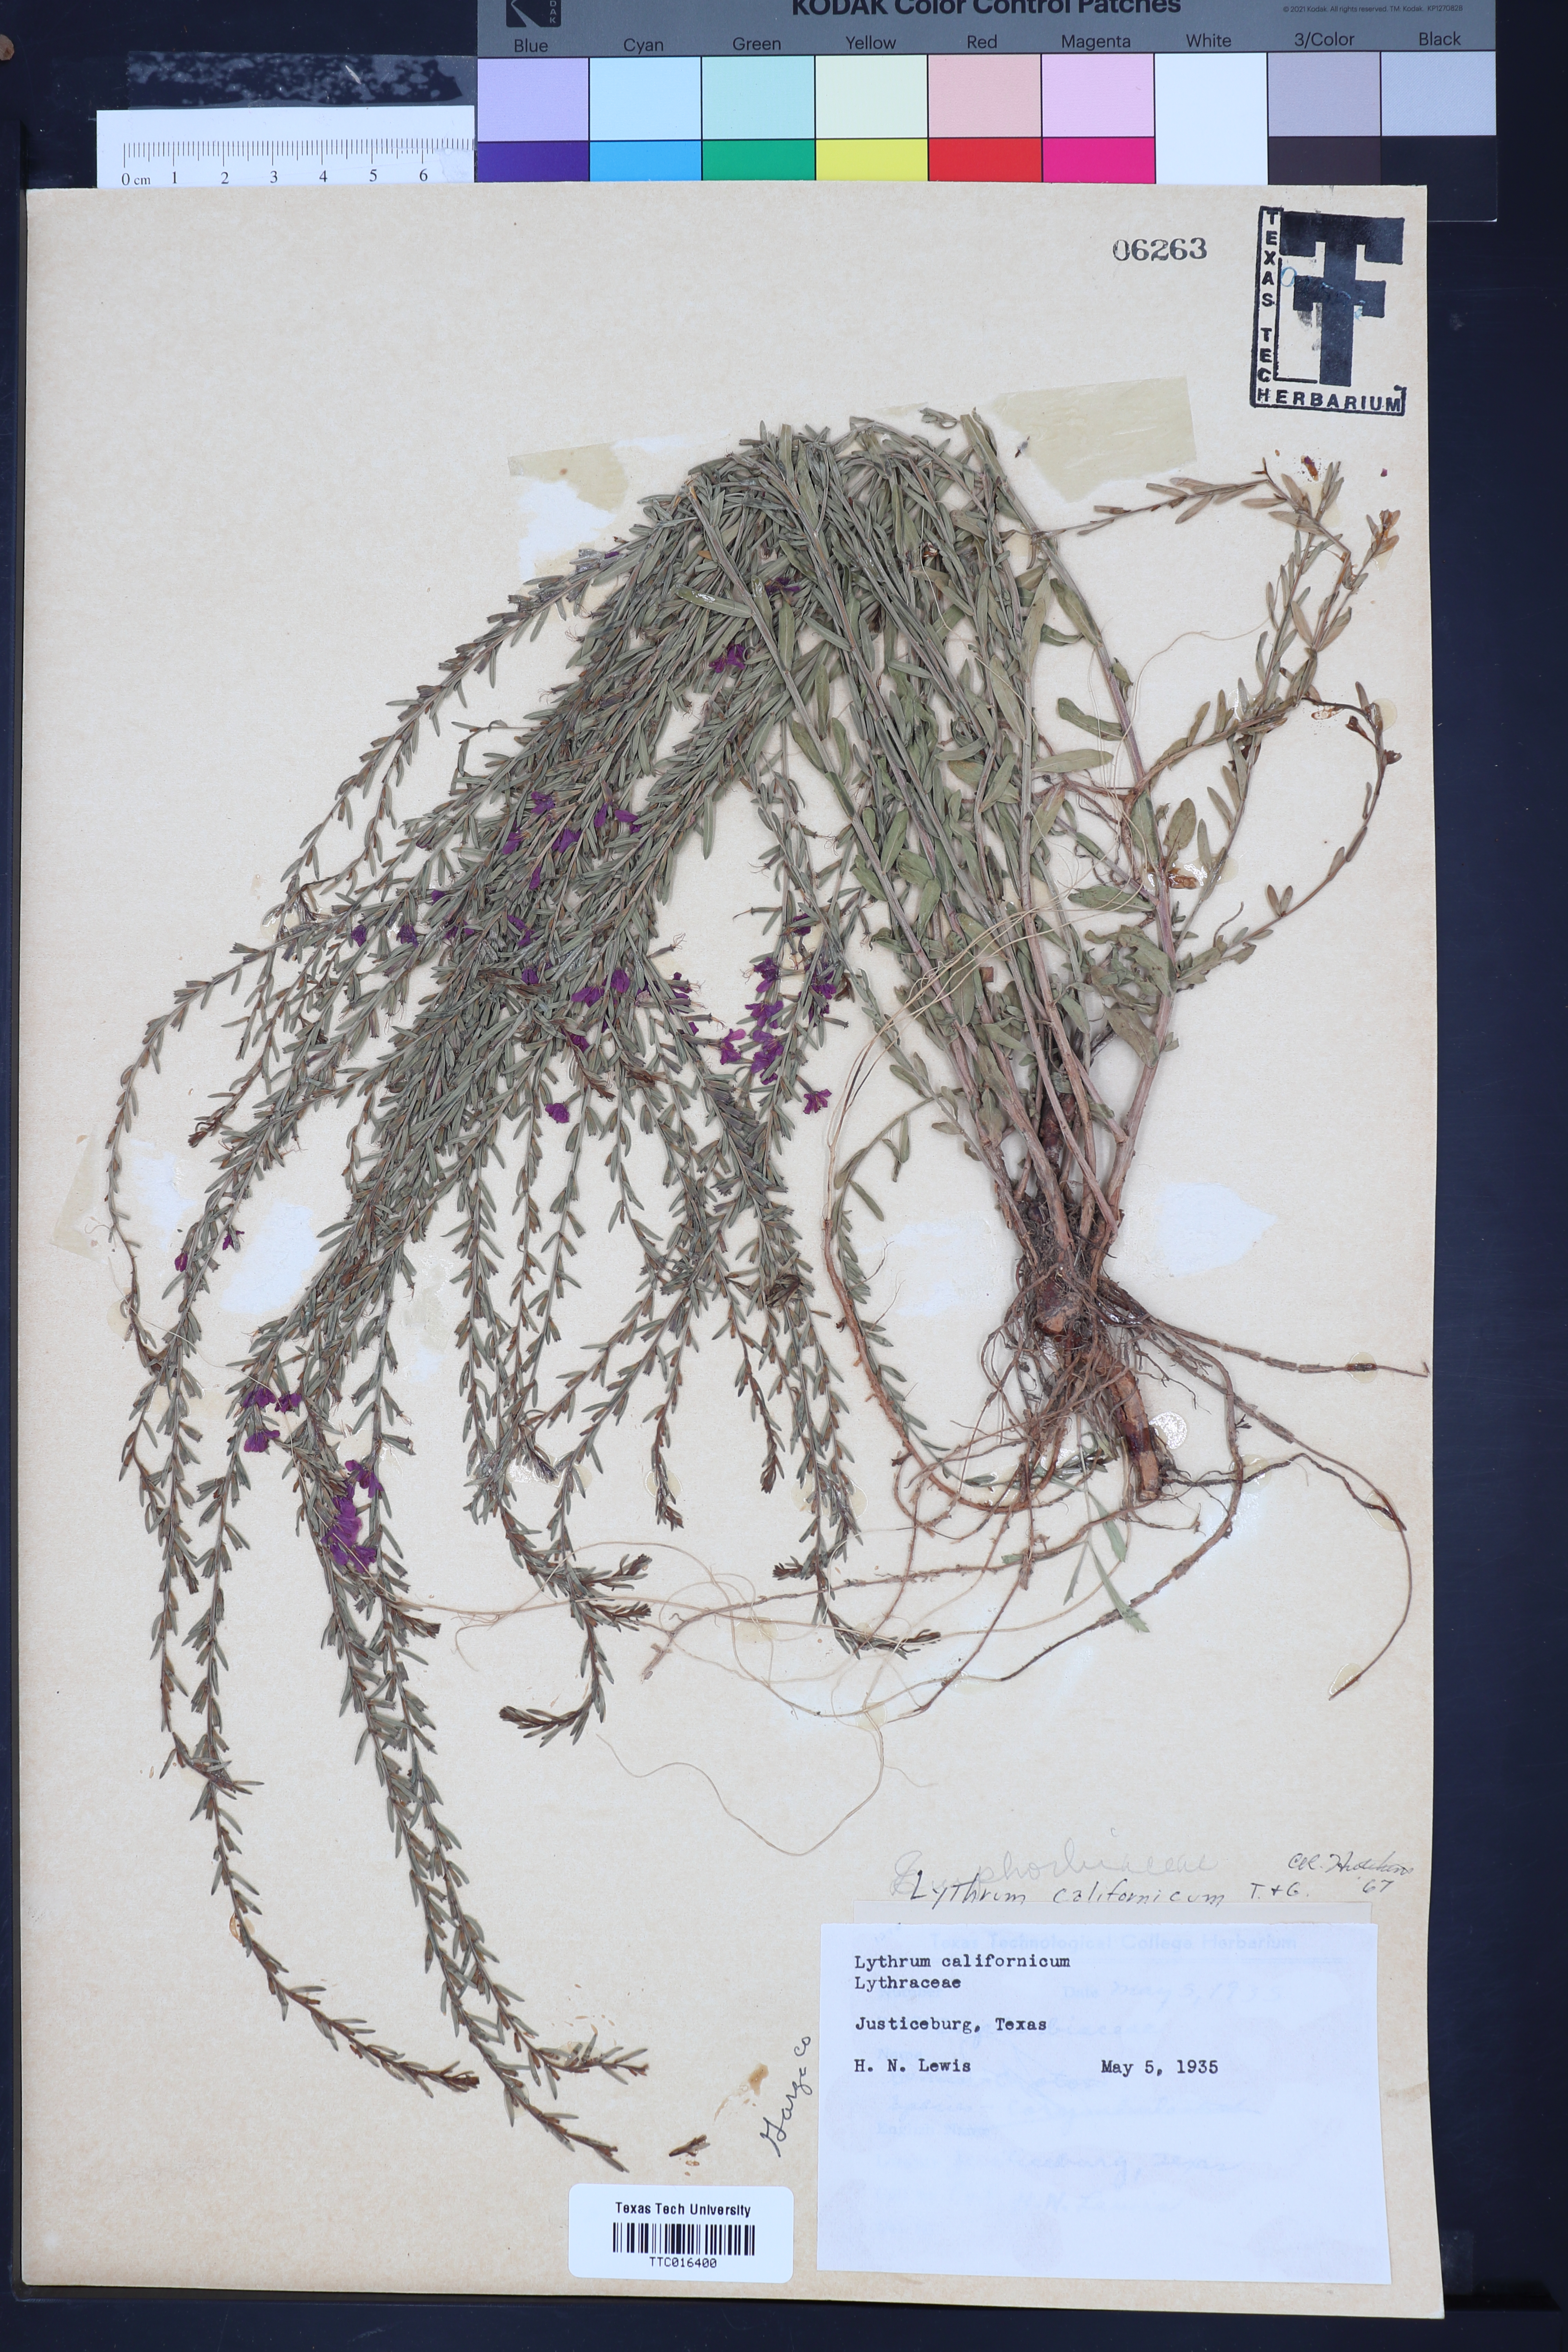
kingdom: Plantae
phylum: Tracheophyta
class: Magnoliopsida
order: Myrtales
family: Lythraceae
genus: Lythrum
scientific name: Lythrum californicum
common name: California loosestrife
